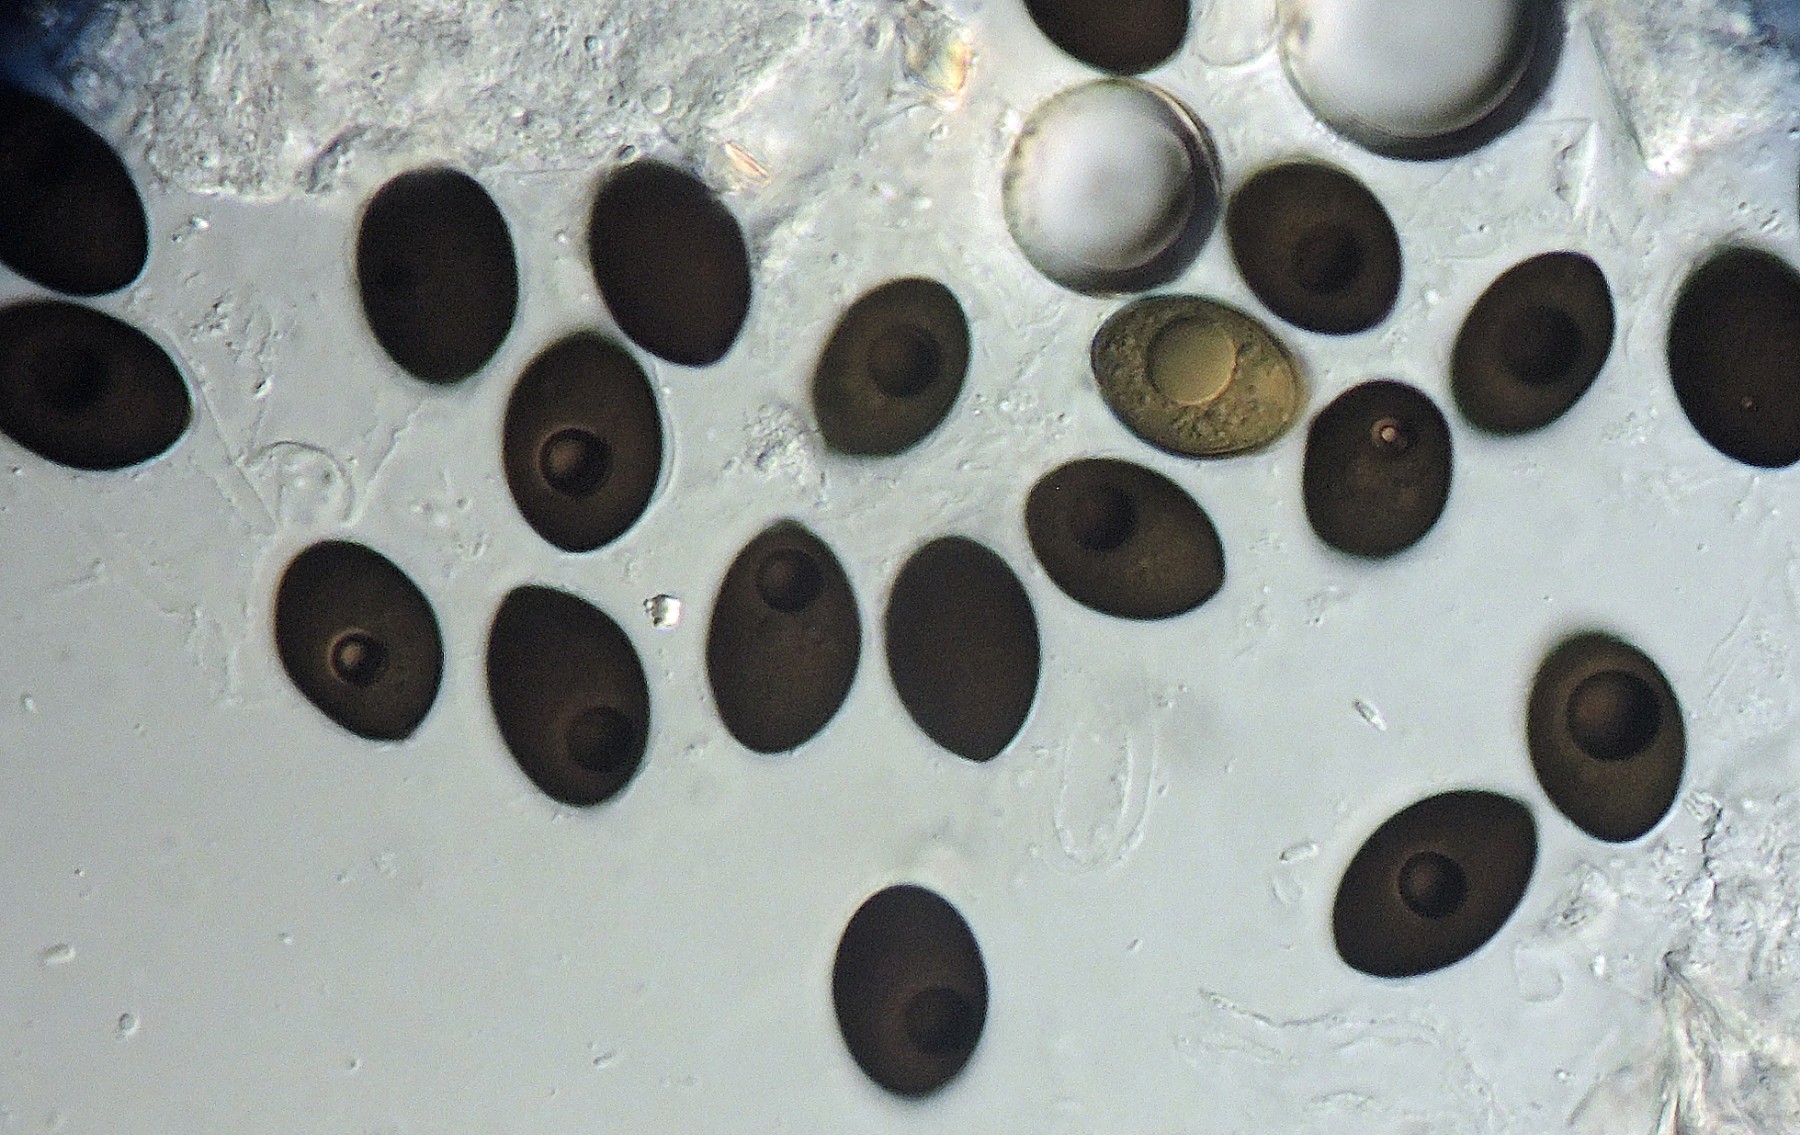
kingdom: Fungi
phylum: Ascomycota
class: Sordariomycetes
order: Sordariales
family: Sordariaceae
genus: Sordaria
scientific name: Sordaria lappae
